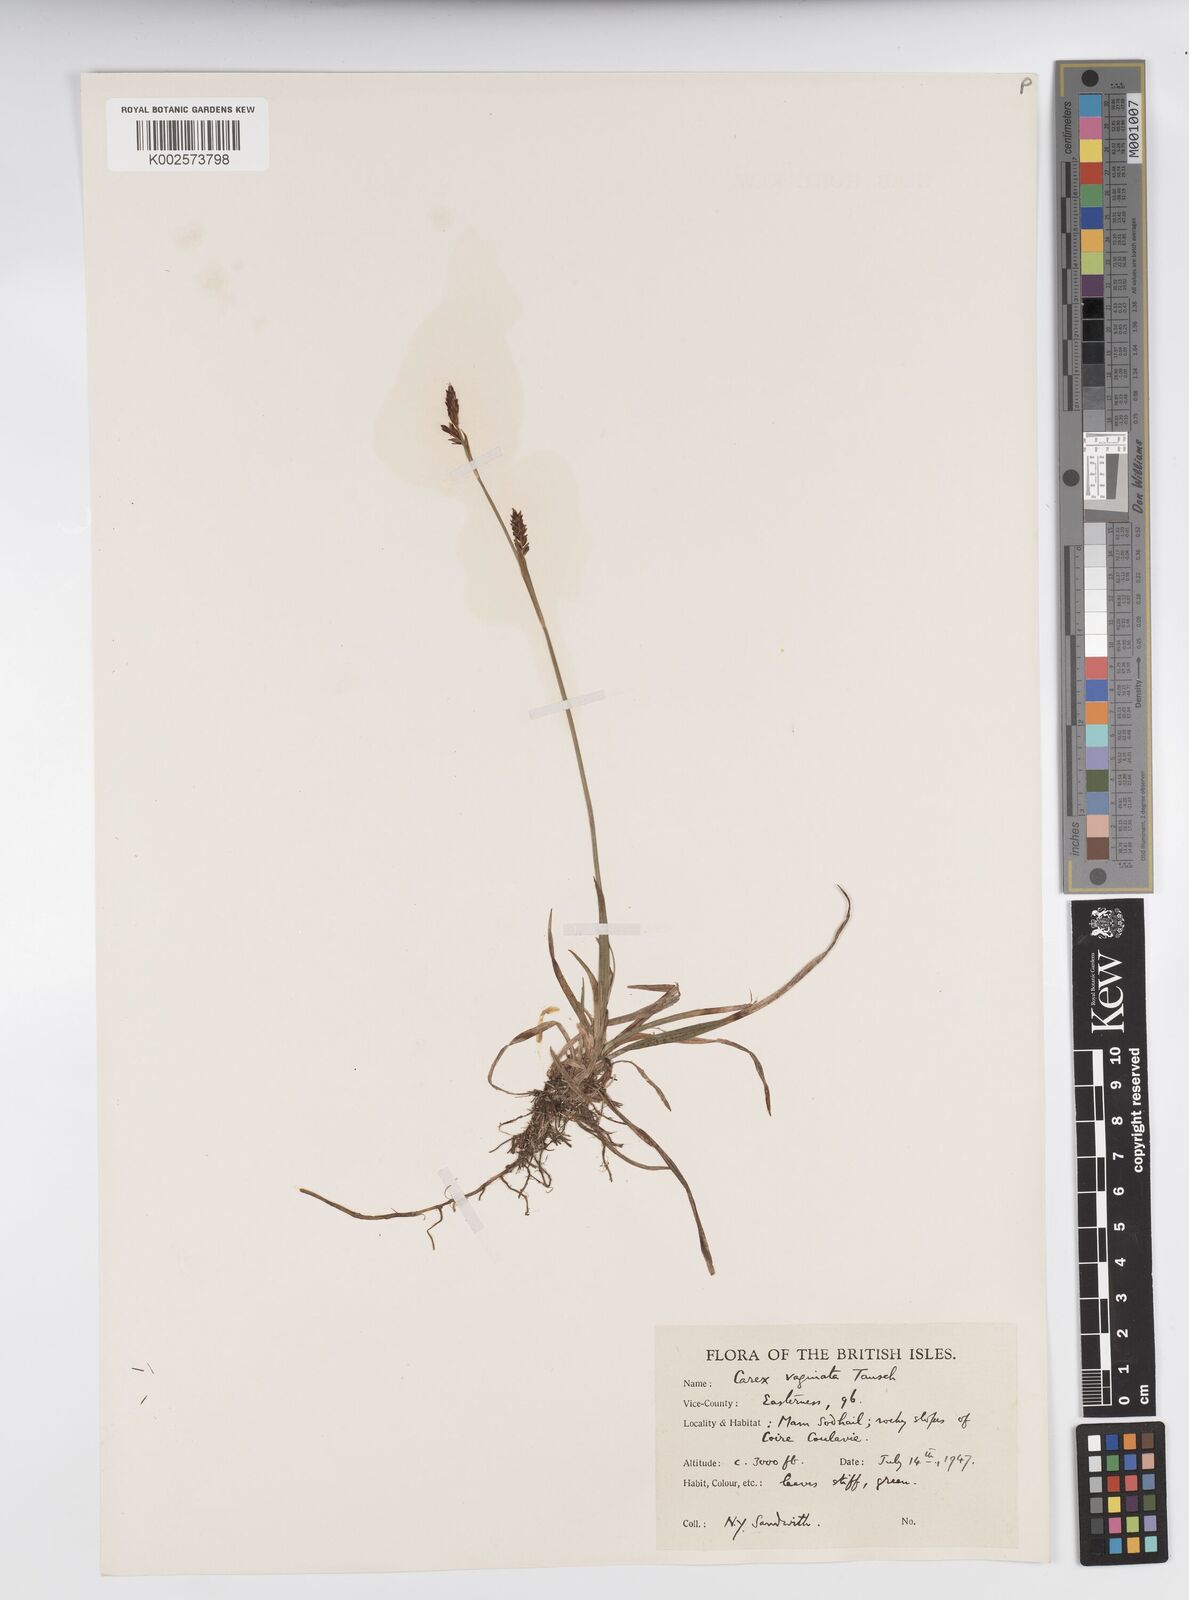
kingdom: Plantae
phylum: Tracheophyta
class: Liliopsida
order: Poales
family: Cyperaceae
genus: Carex
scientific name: Carex vaginata
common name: Sheathed sedge
